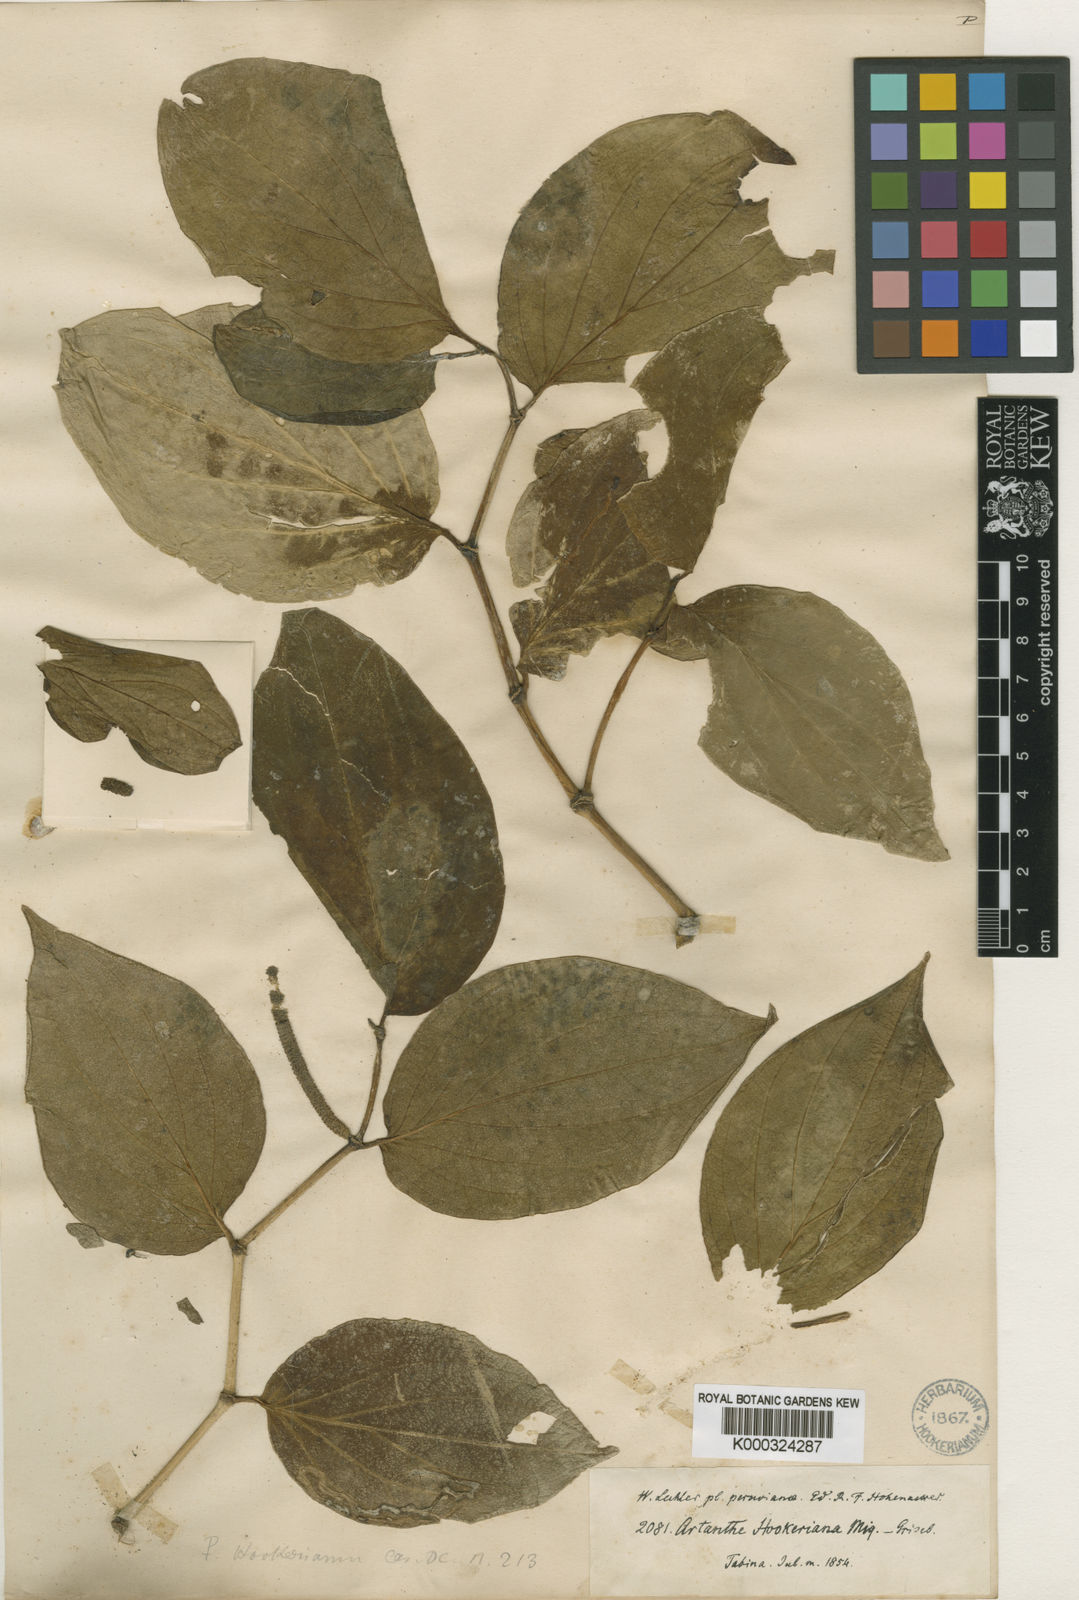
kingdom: Plantae
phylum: Tracheophyta
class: Magnoliopsida
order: Piperales
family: Piperaceae
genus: Piper
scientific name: Piper hookerianum
